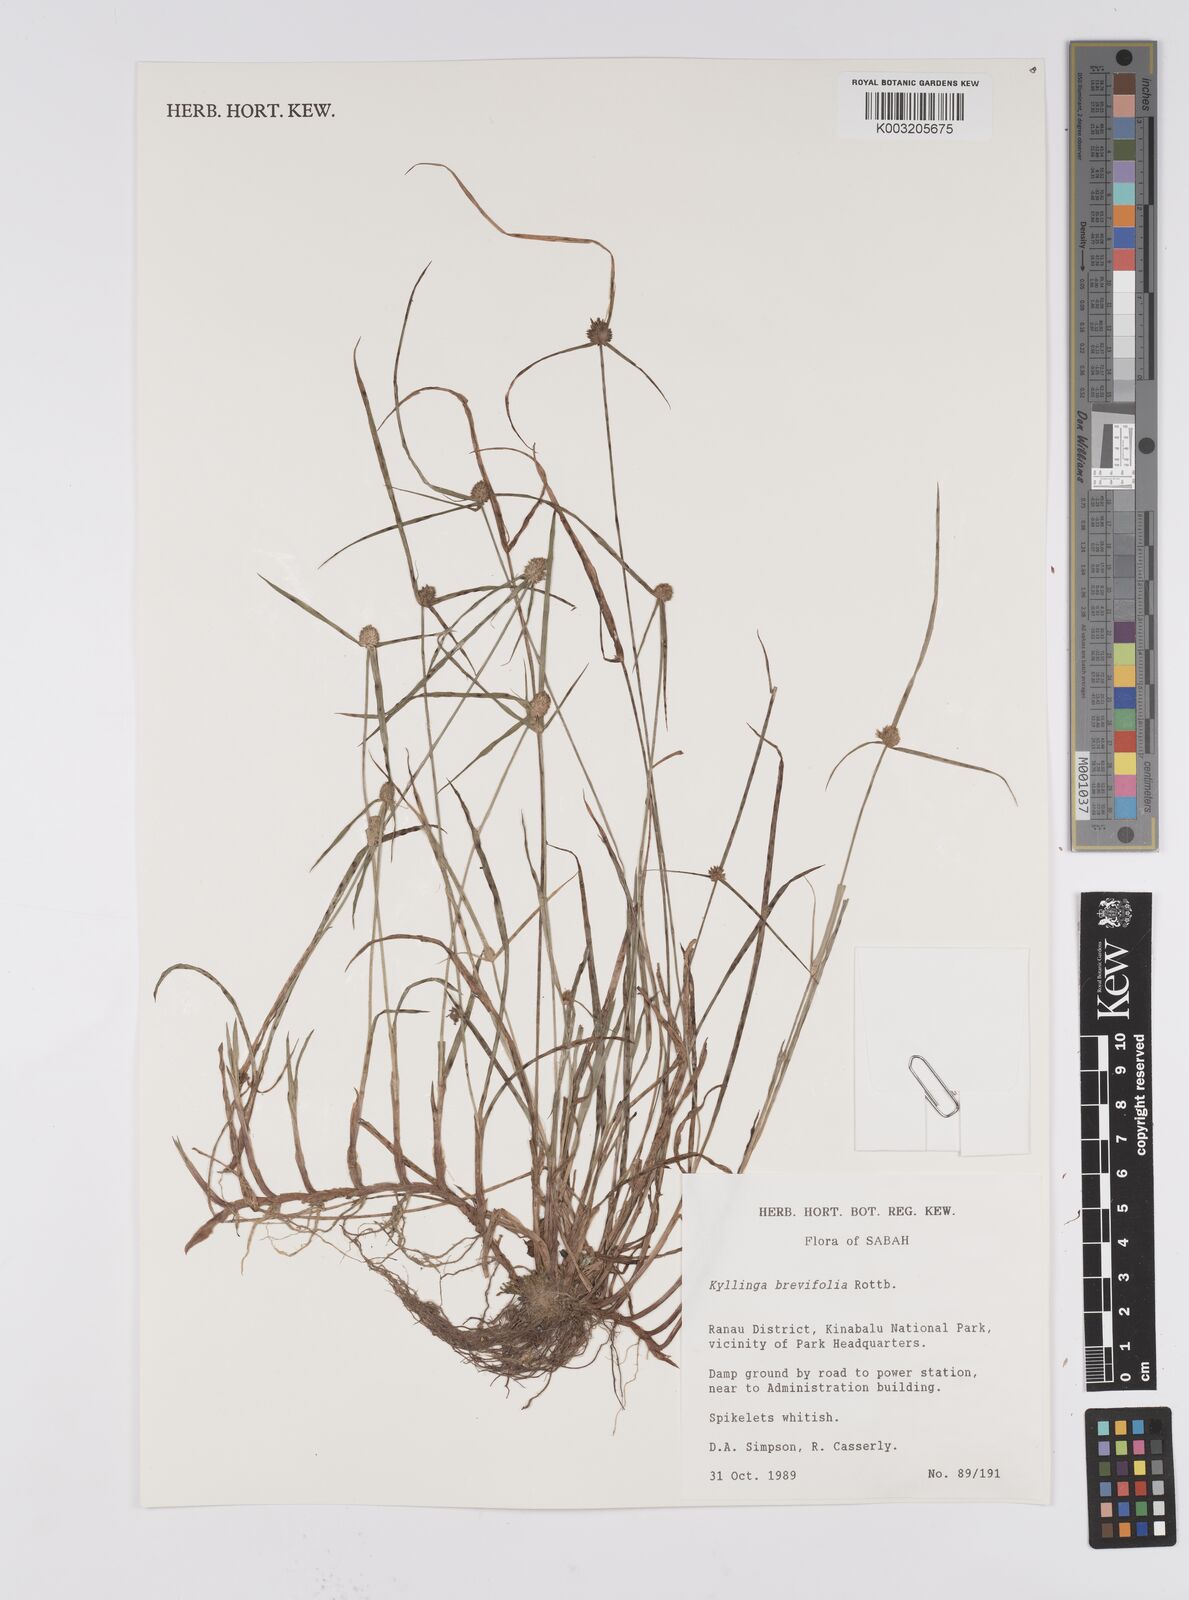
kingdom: Plantae
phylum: Tracheophyta
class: Liliopsida
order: Poales
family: Cyperaceae
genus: Cyperus
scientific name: Cyperus brevifolius
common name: Globe kyllinga
